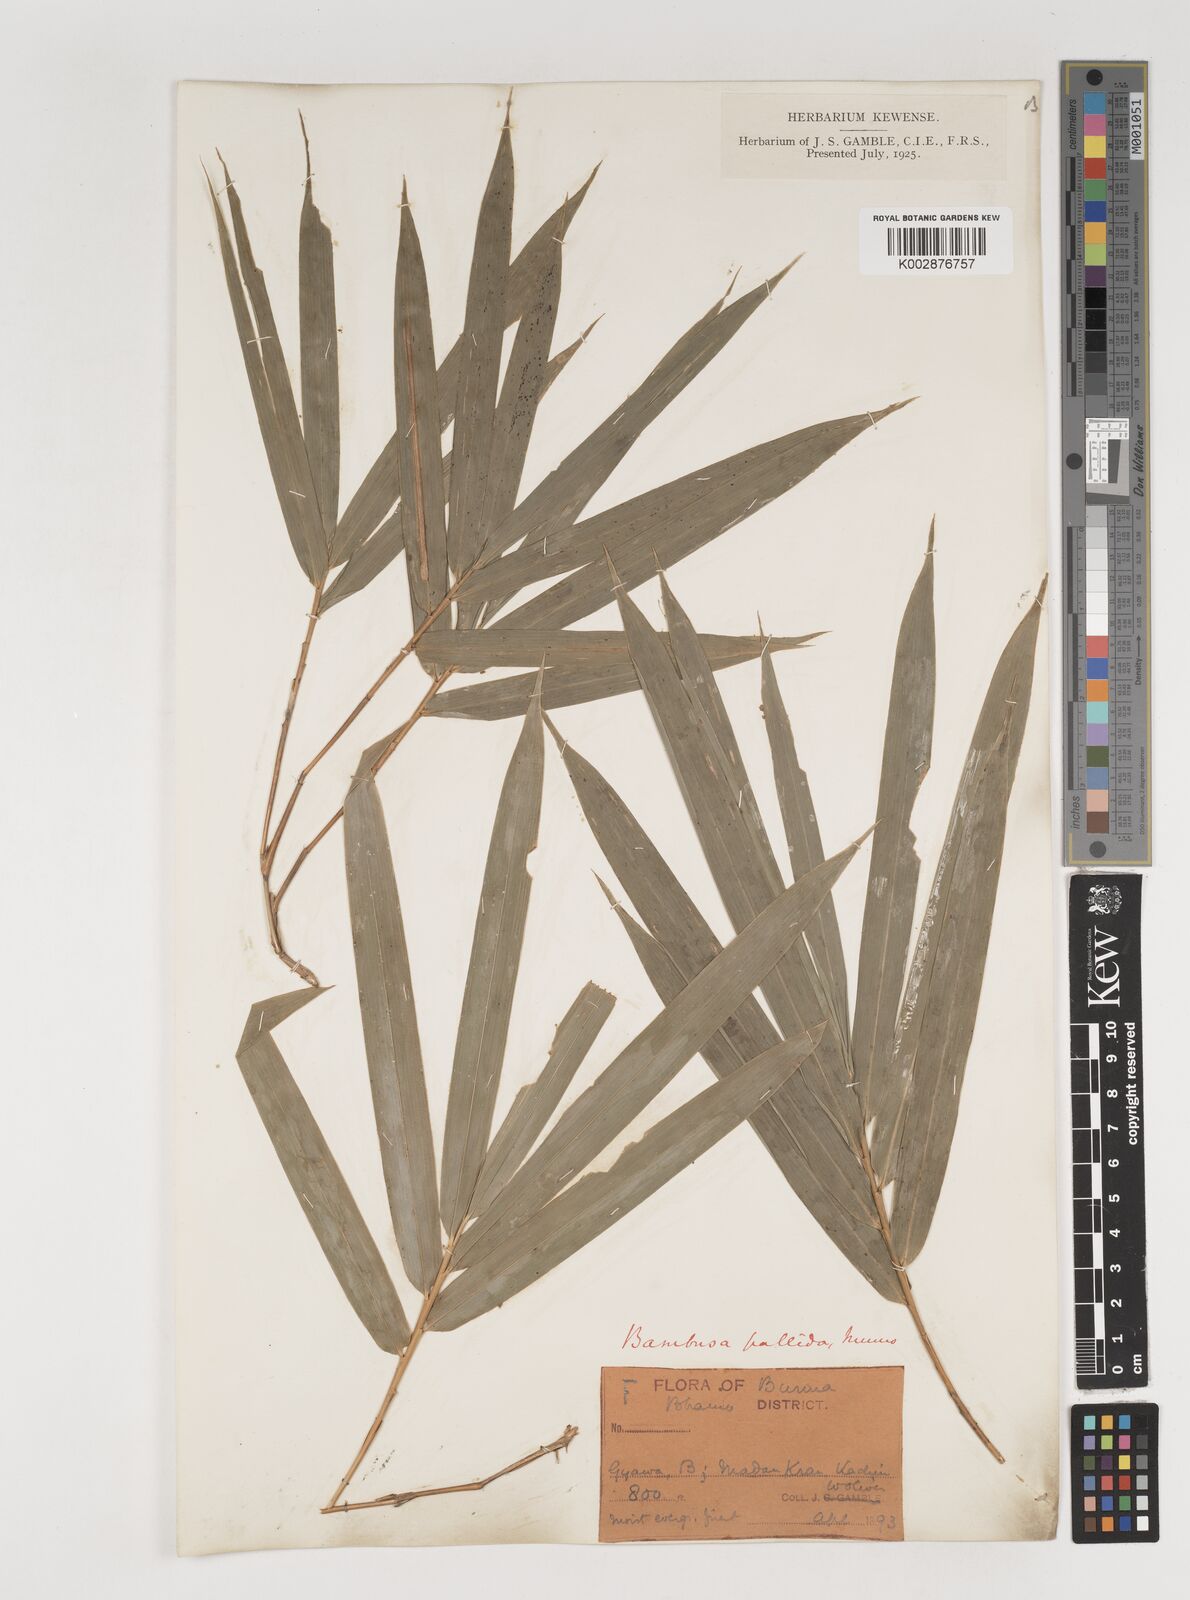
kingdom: Plantae
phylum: Tracheophyta
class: Liliopsida
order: Poales
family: Poaceae
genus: Bambusa
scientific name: Bambusa pallida
